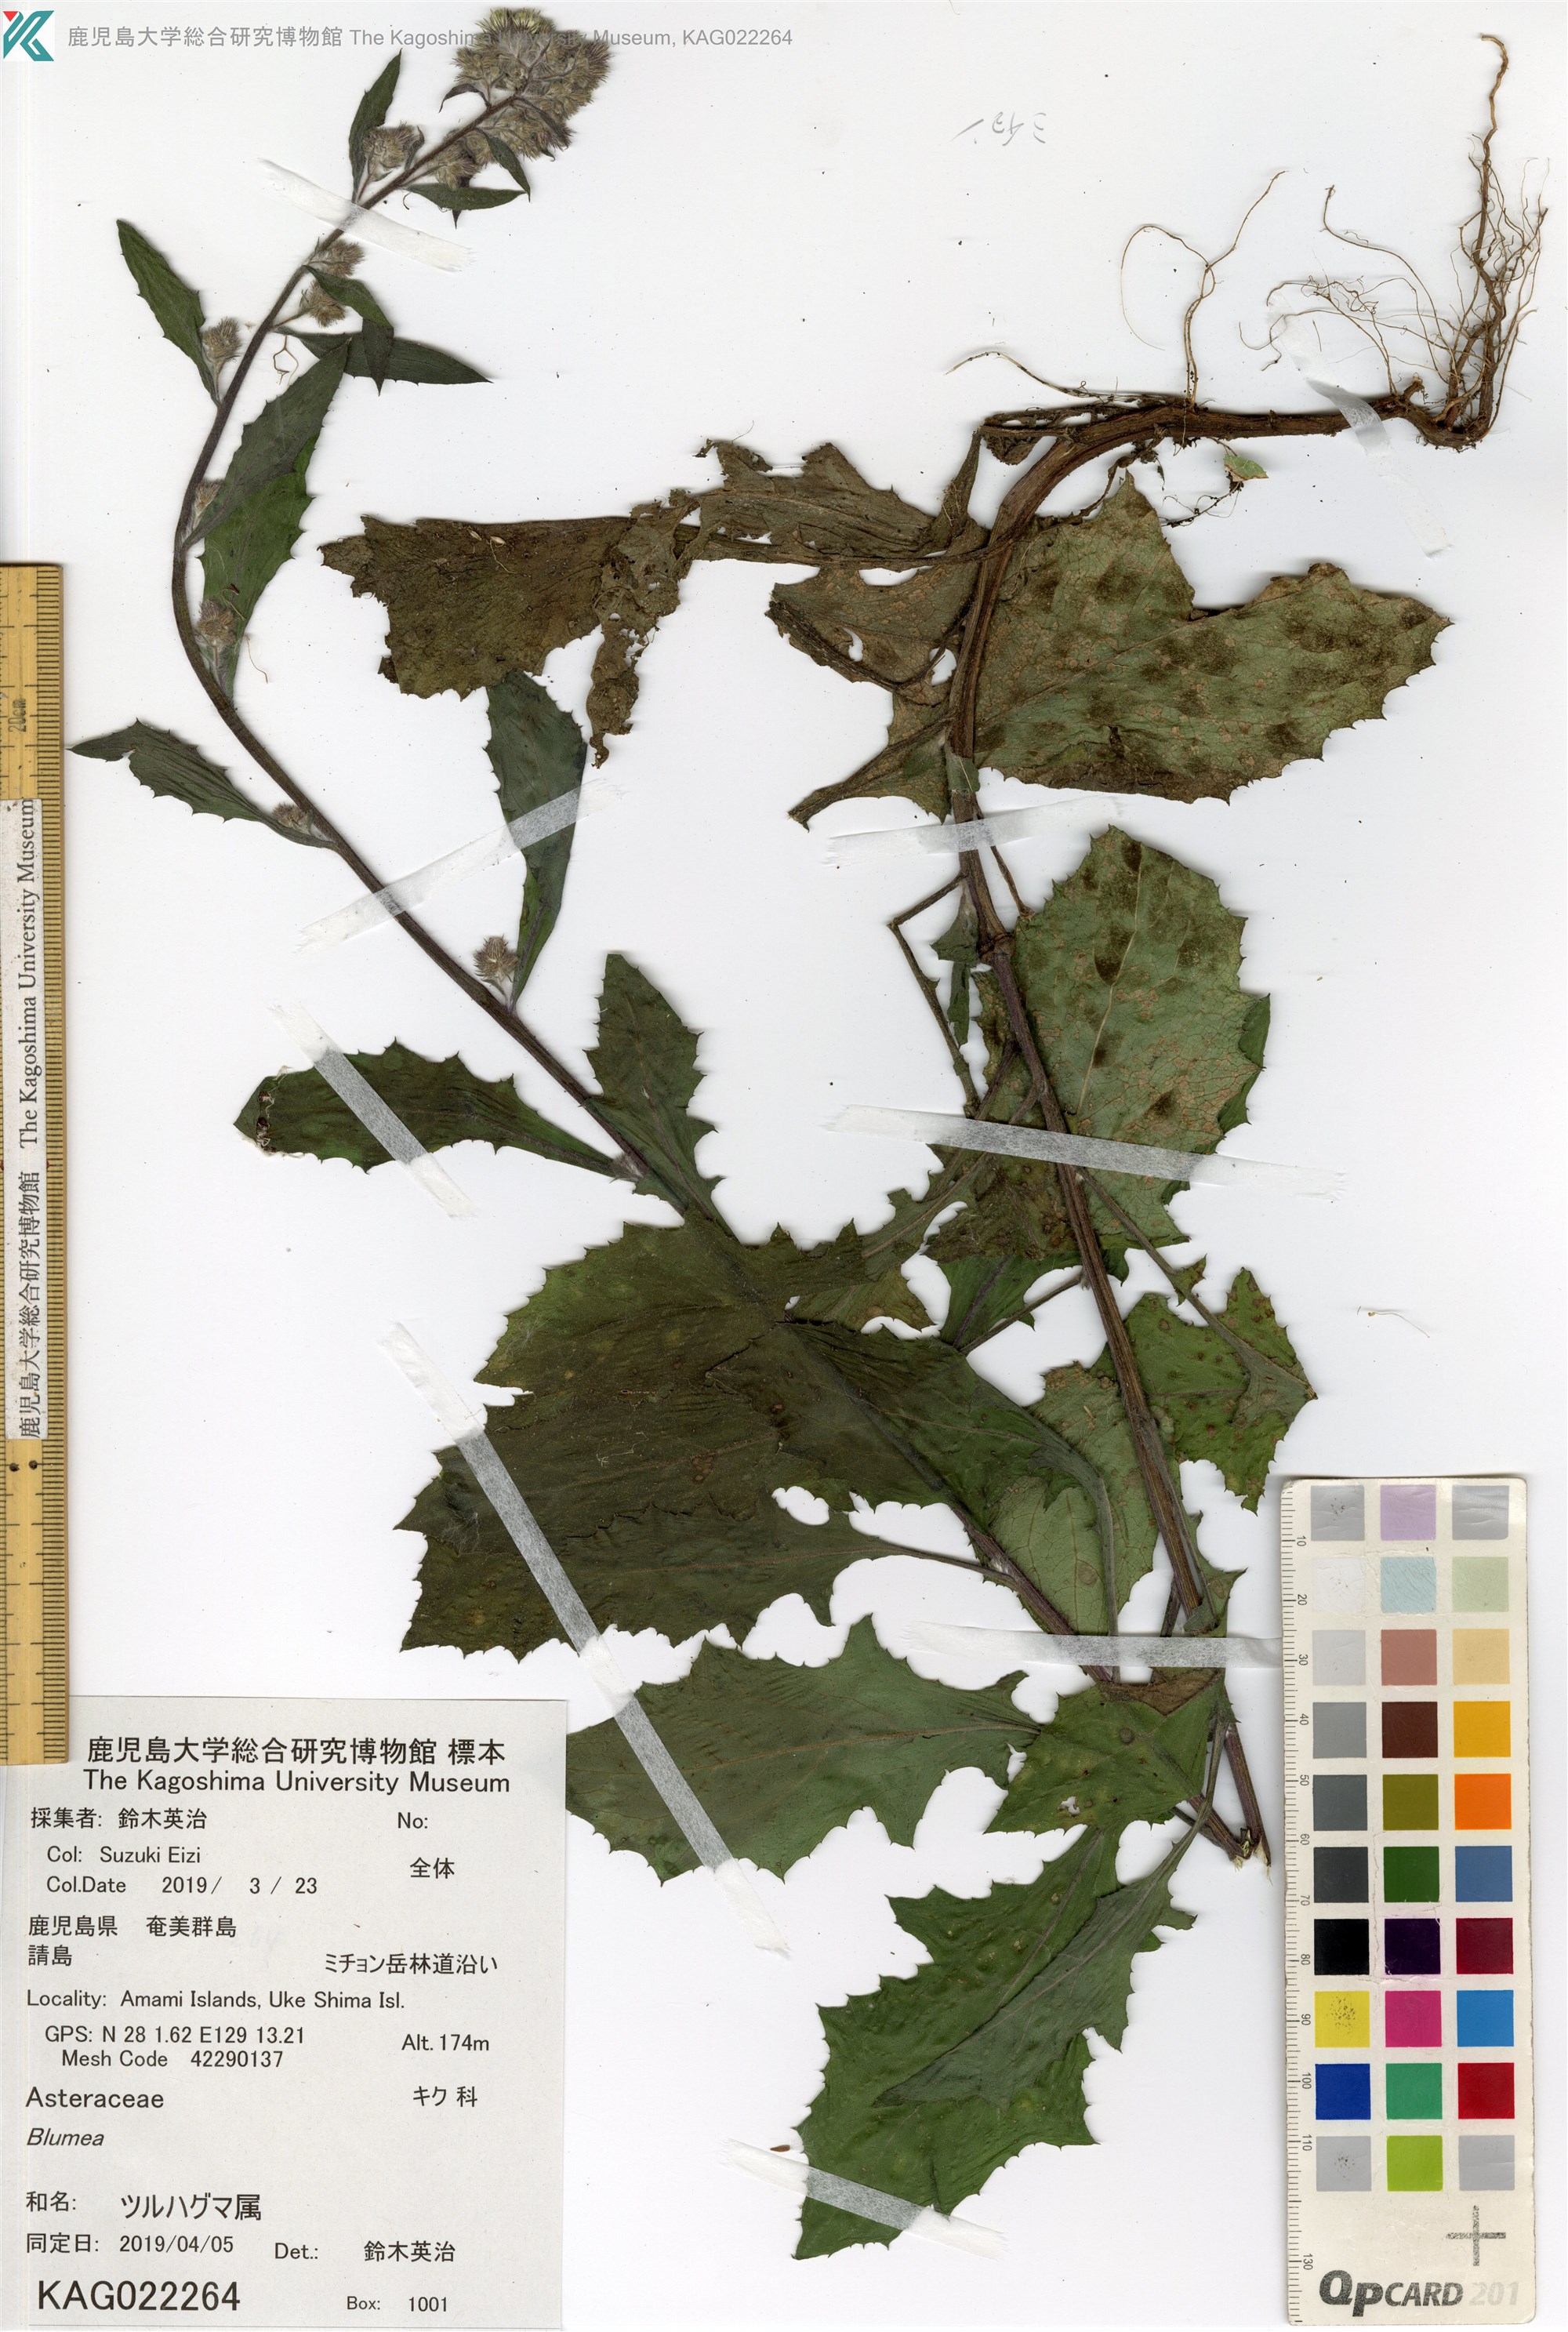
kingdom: Plantae
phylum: Tracheophyta
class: Magnoliopsida
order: Asterales
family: Asteraceae
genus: Blumea
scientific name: Blumea sinuata
